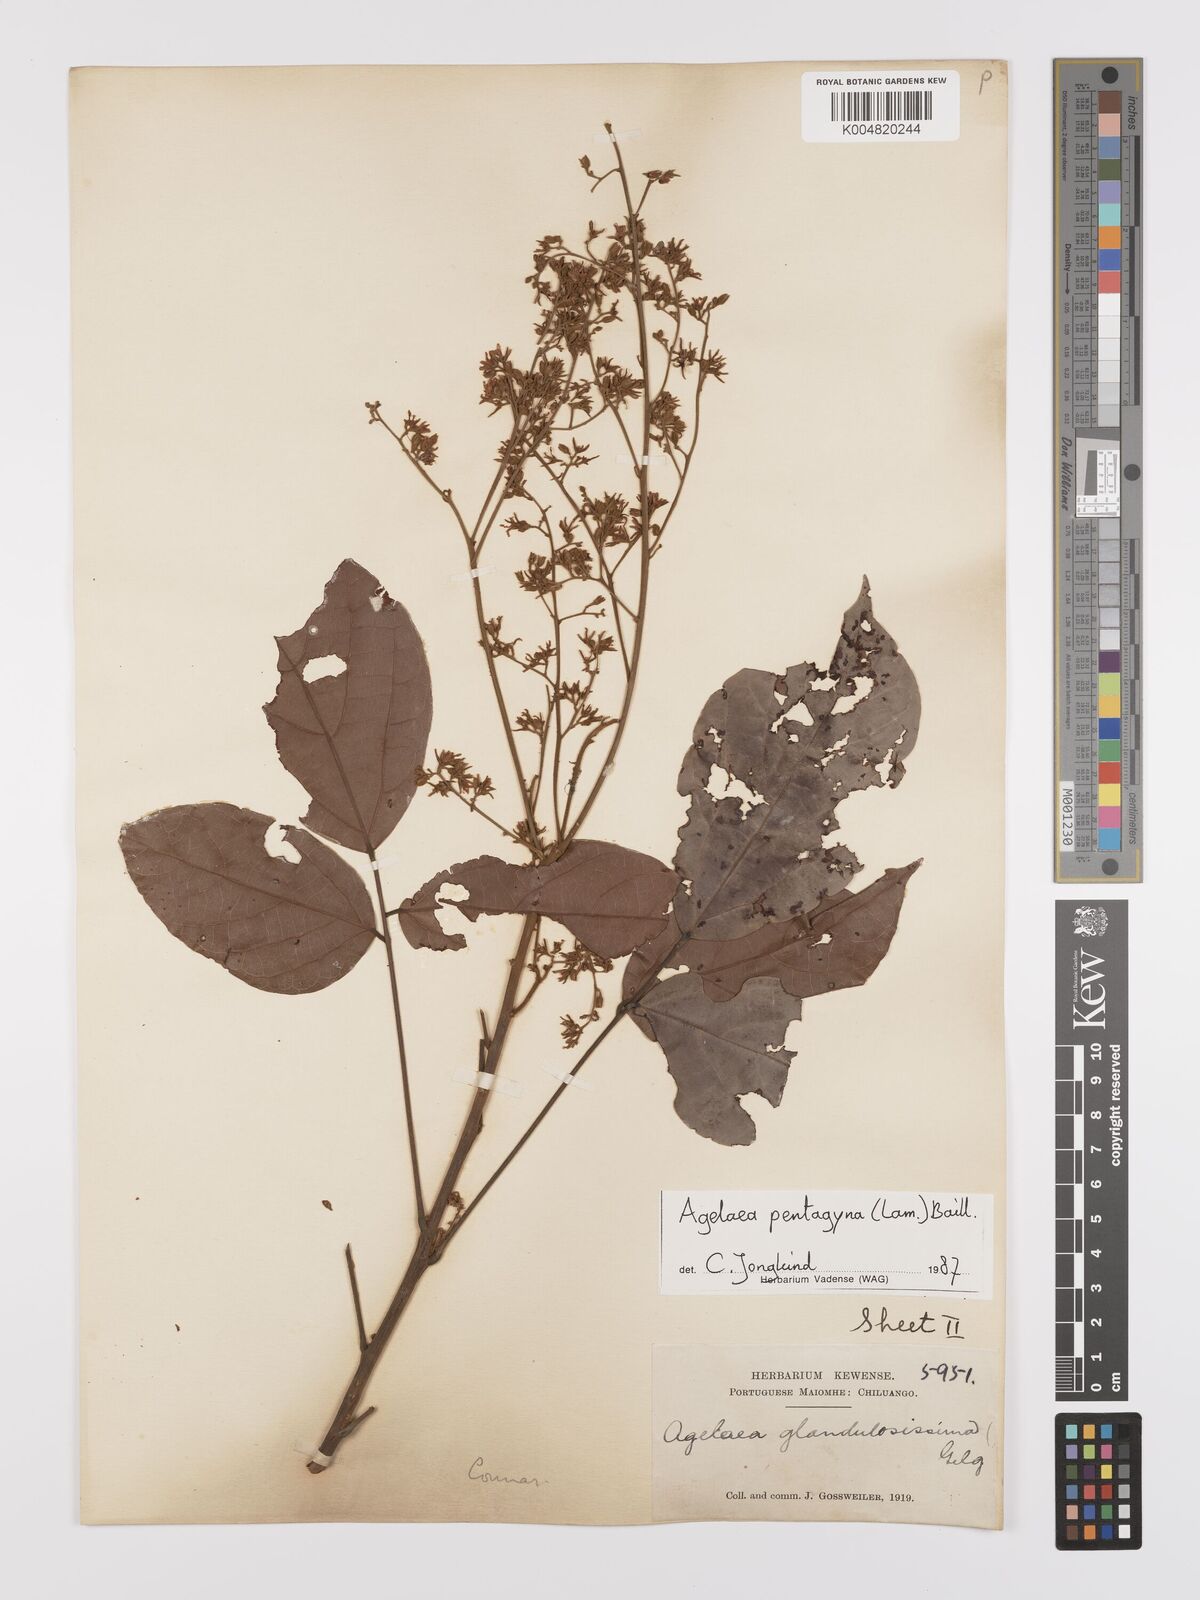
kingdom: Plantae
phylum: Tracheophyta
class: Magnoliopsida
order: Oxalidales
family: Connaraceae
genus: Agelaea
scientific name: Agelaea pentagyna
